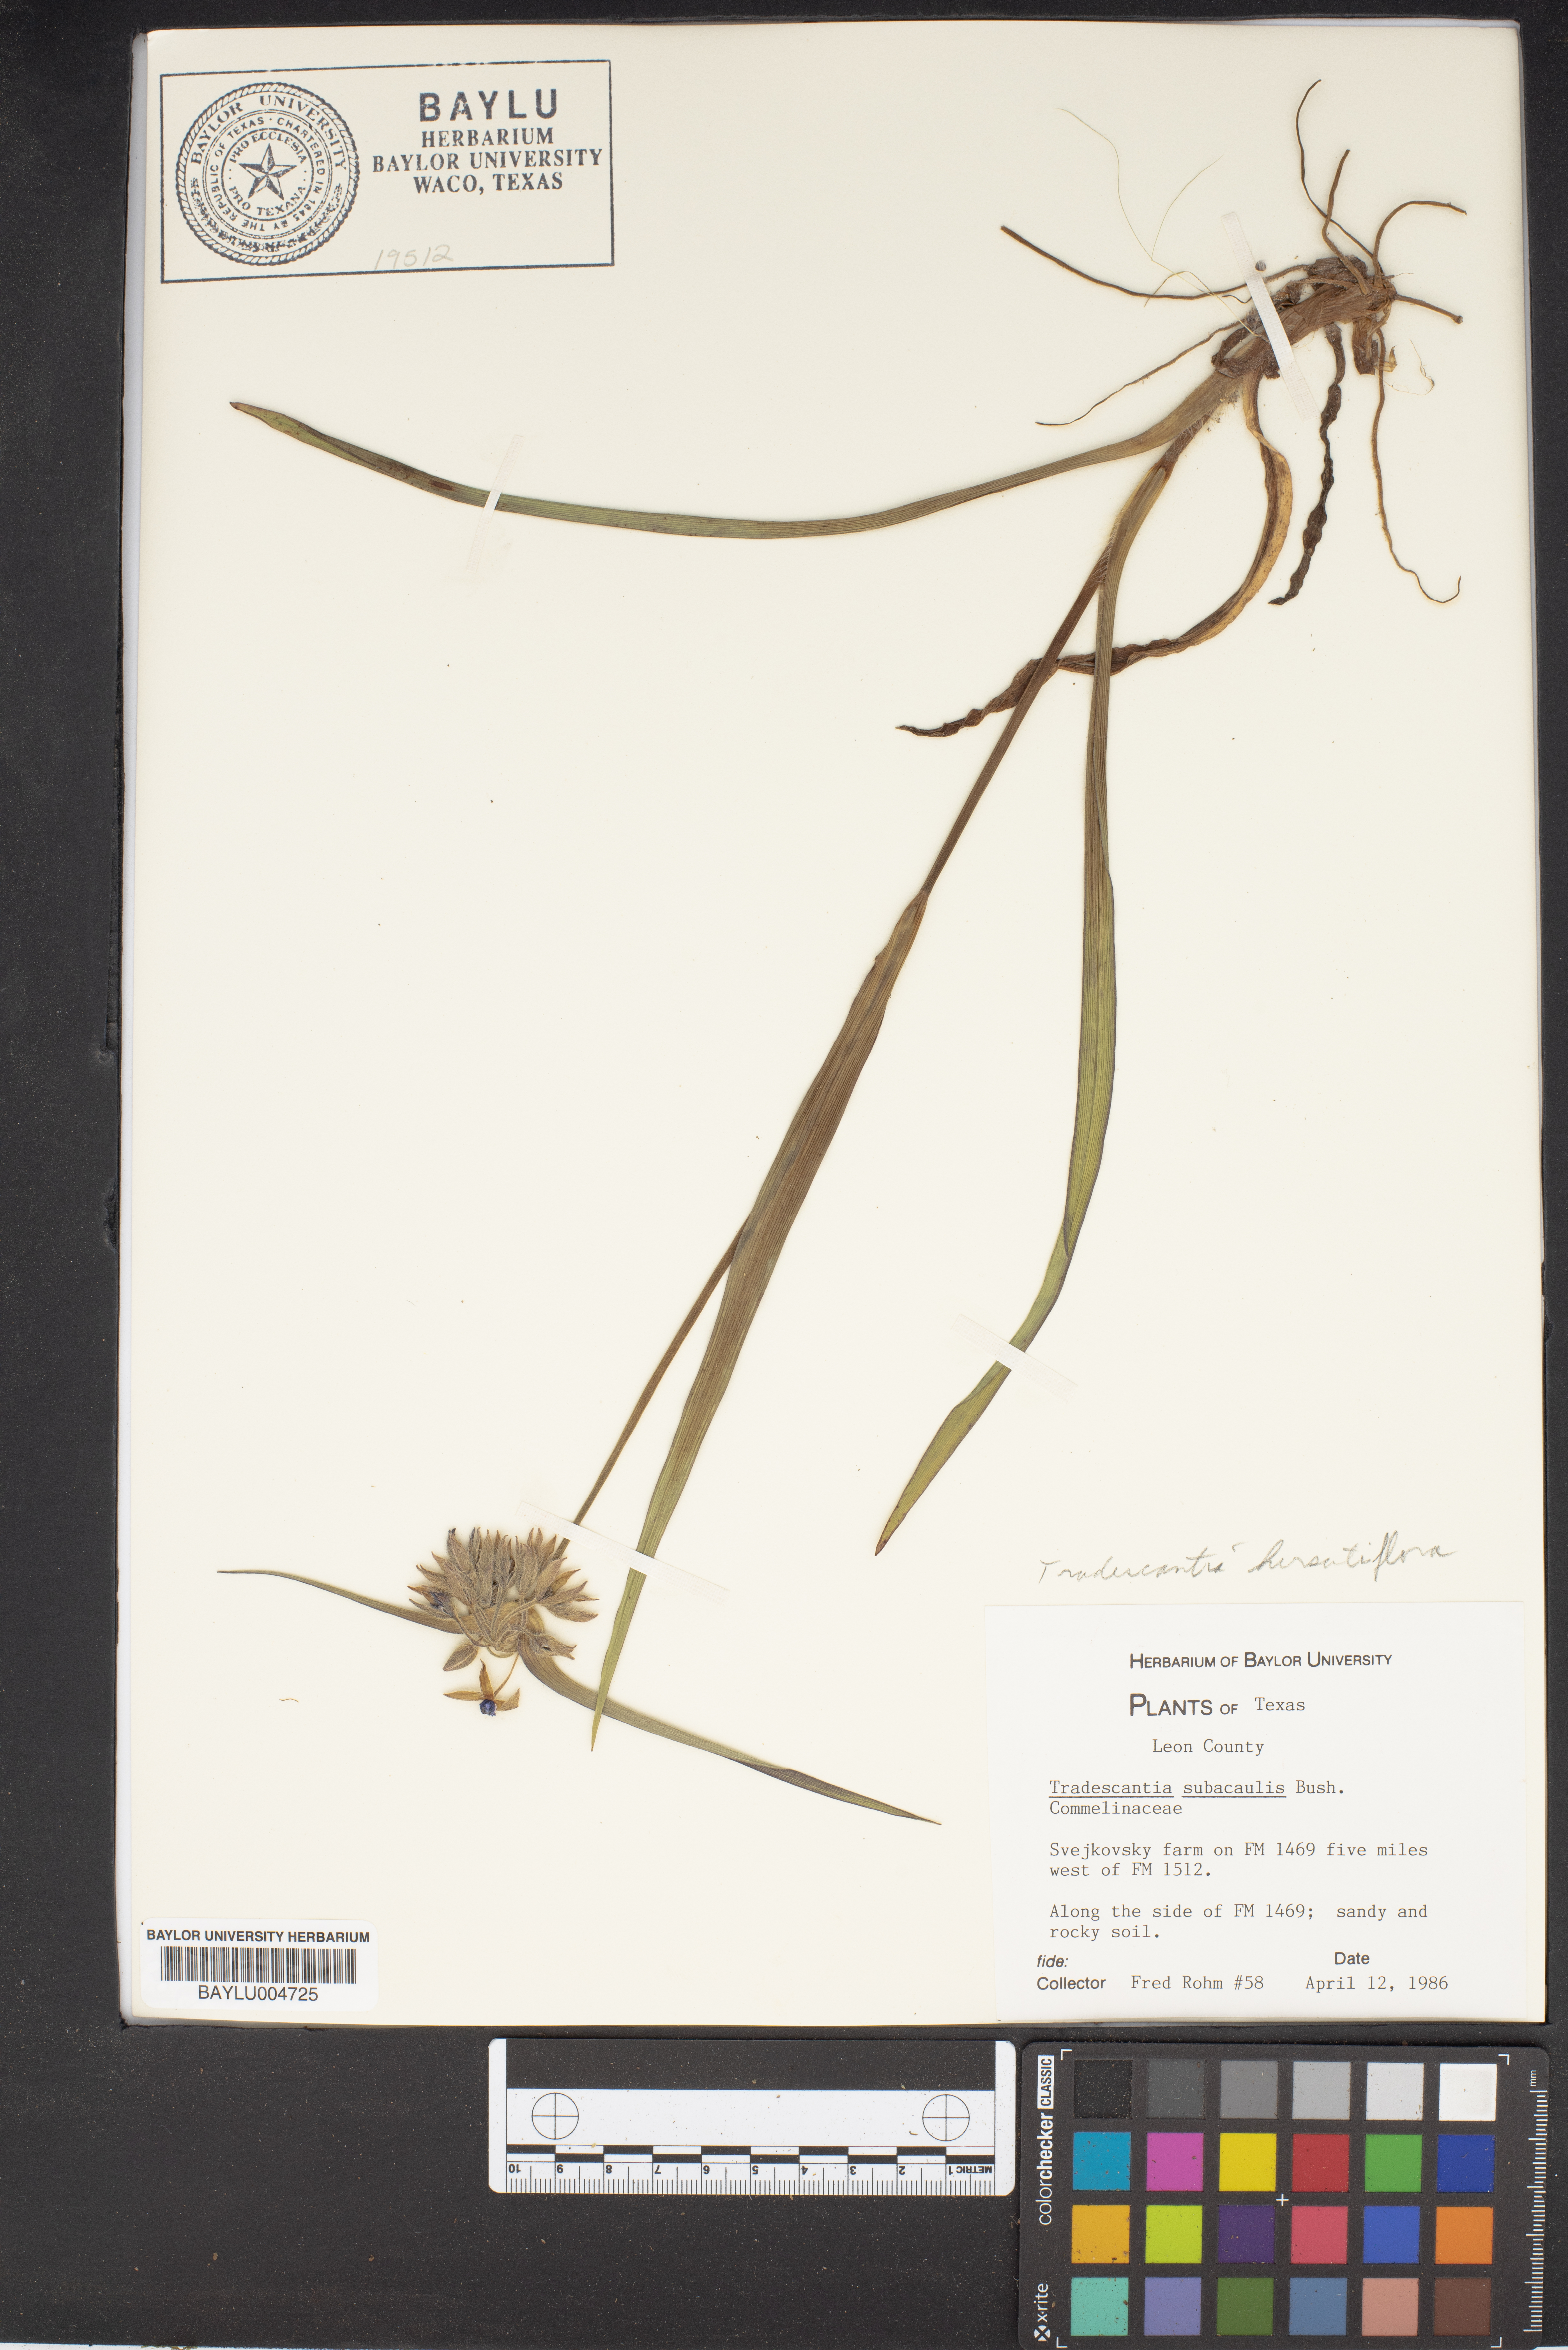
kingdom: Plantae
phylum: Tracheophyta
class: Liliopsida
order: Commelinales
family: Commelinaceae
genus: Tradescantia
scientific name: Tradescantia subacaulis
